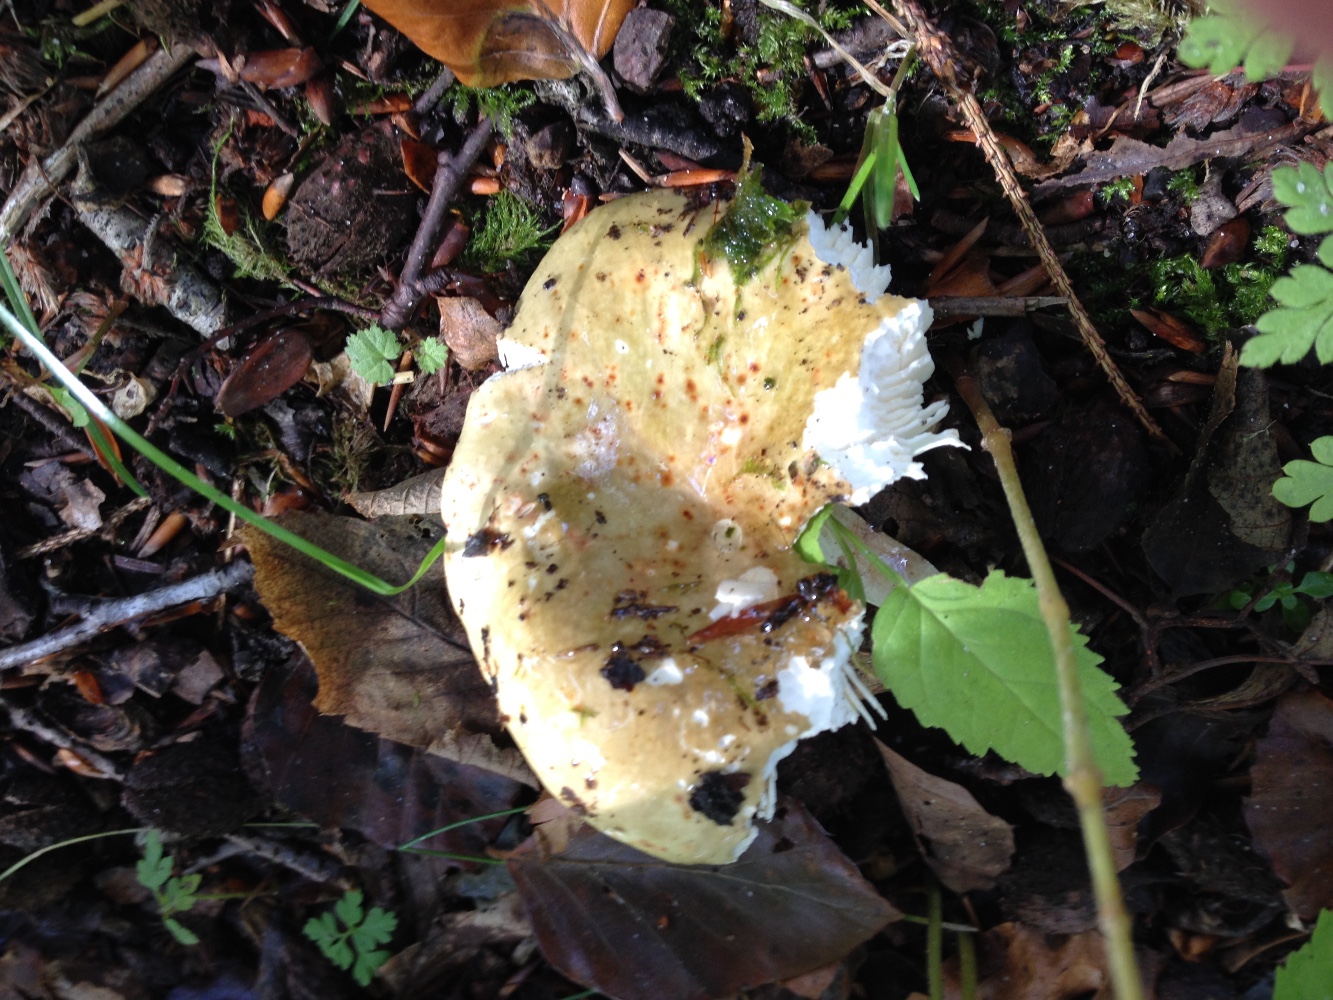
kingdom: Fungi
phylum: Basidiomycota
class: Agaricomycetes
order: Russulales
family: Russulaceae
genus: Russula
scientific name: Russula olivacea
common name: stor skørhat
